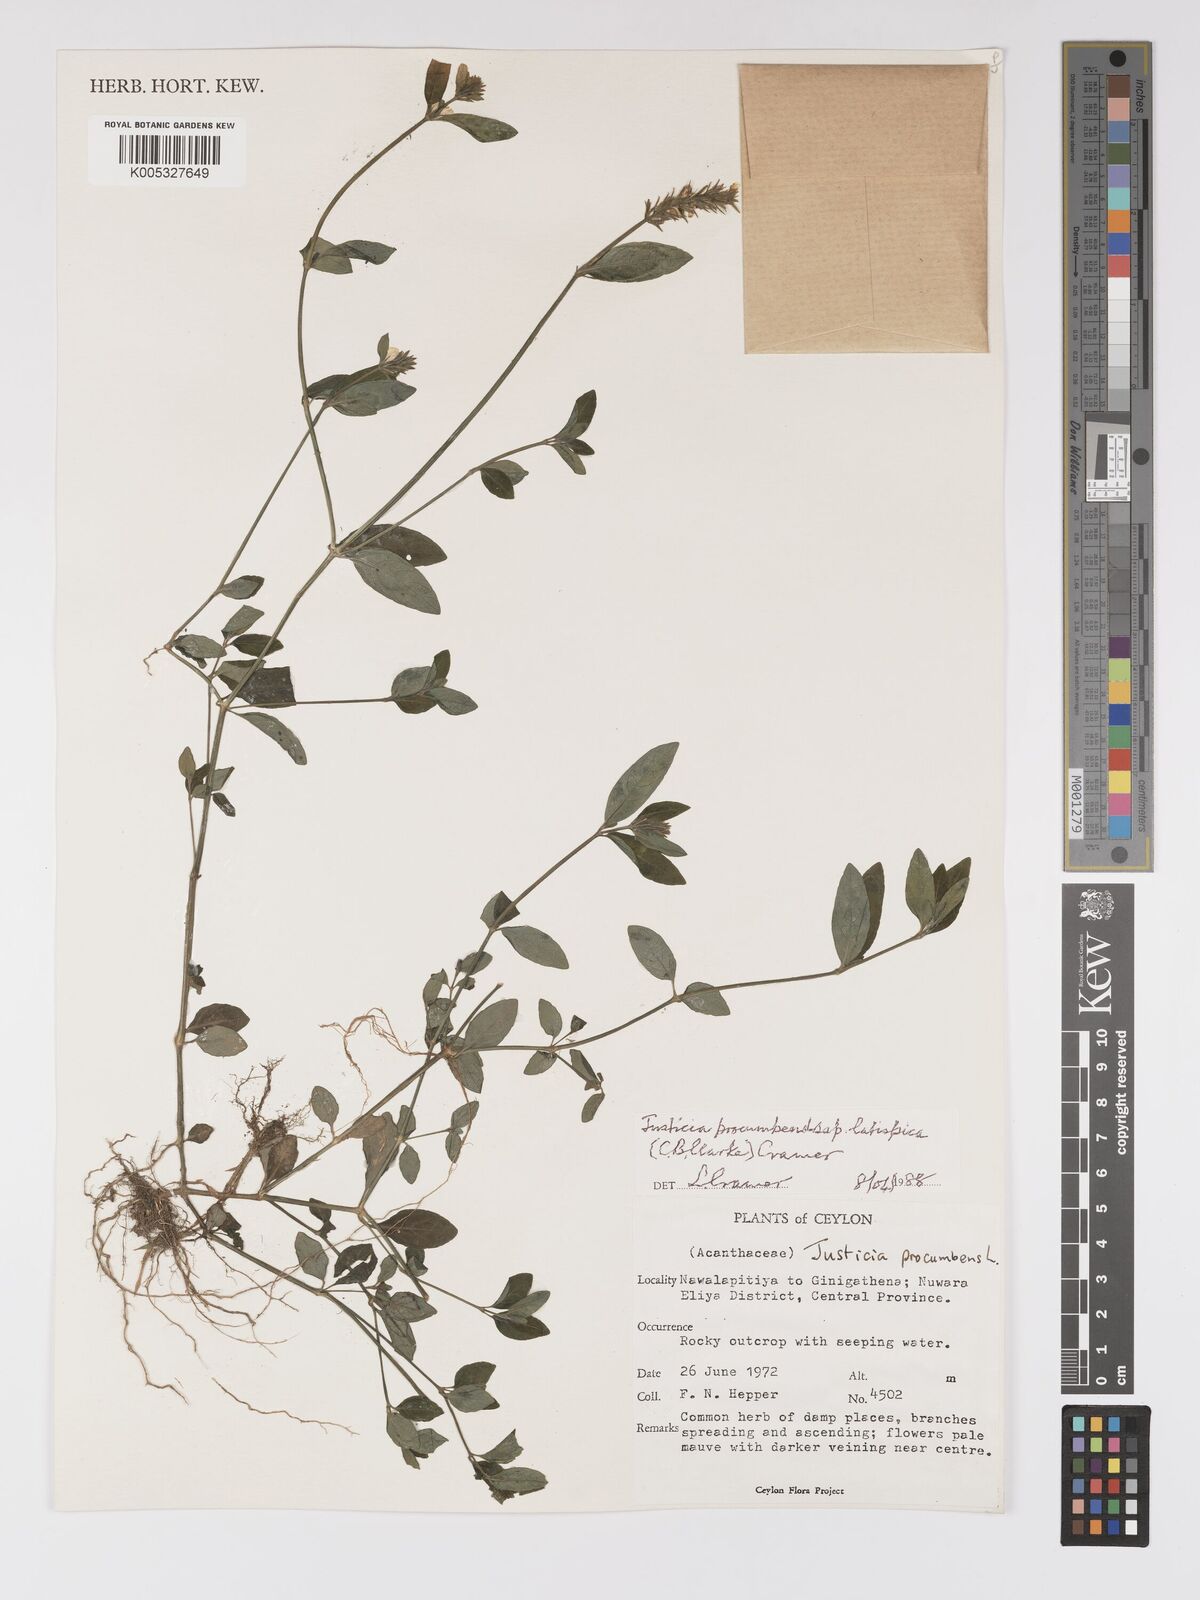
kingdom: Plantae
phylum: Tracheophyta
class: Magnoliopsida
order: Lamiales
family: Acanthaceae
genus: Rostellularia
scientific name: Rostellularia latispica
